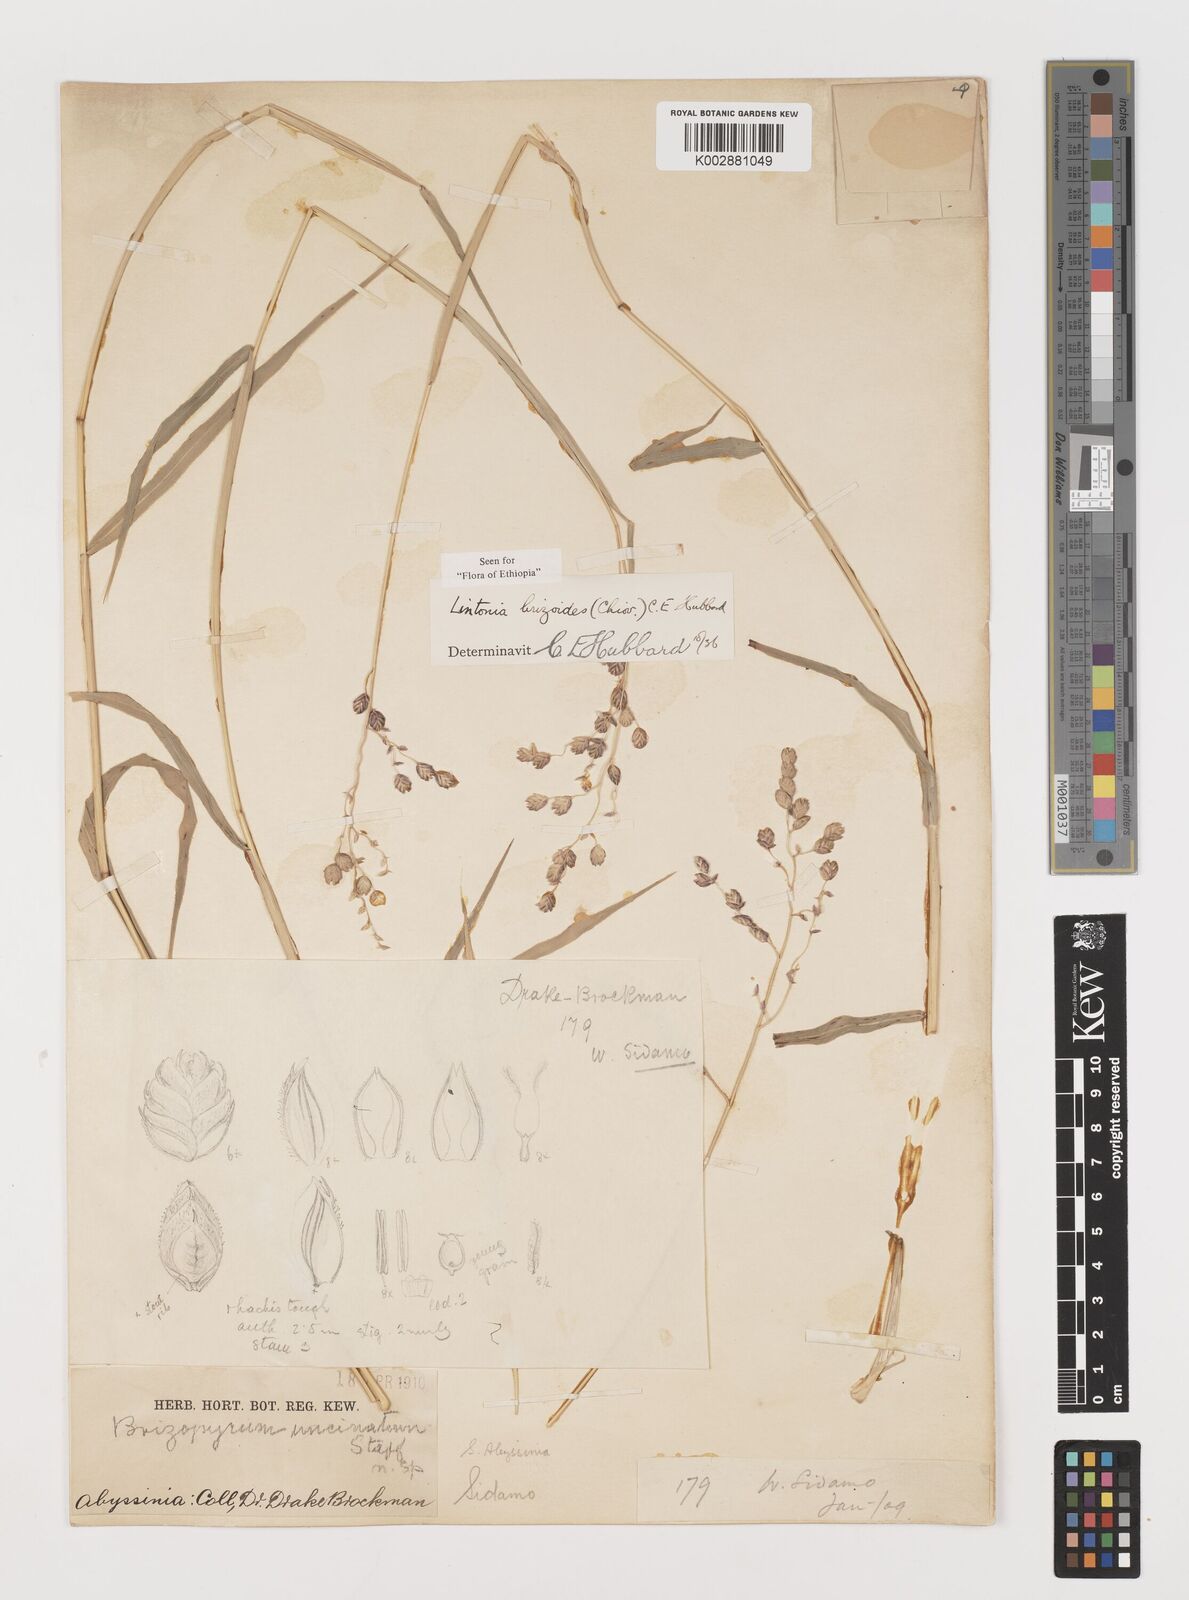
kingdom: Plantae
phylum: Tracheophyta
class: Liliopsida
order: Poales
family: Poaceae
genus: Chloris
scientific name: Chloris Lintonia brizoides
